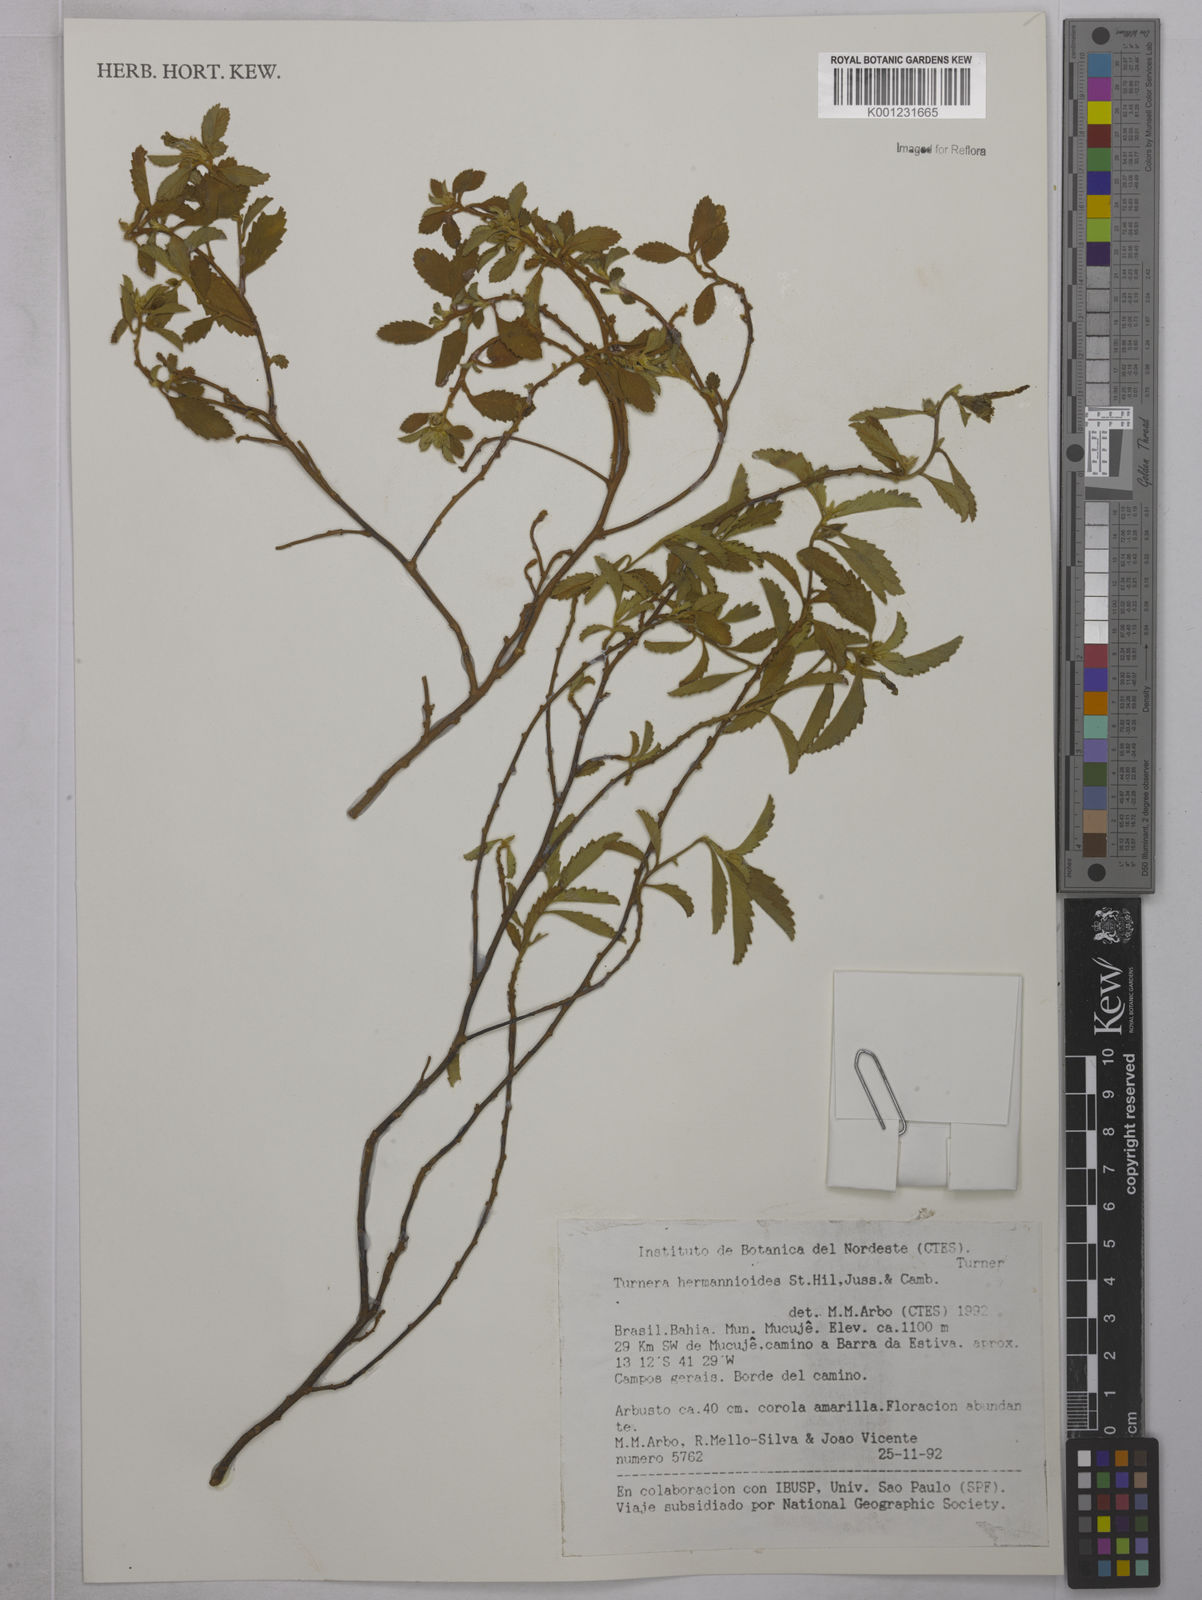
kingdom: Plantae
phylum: Tracheophyta
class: Magnoliopsida
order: Malpighiales
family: Turneraceae
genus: Turnera
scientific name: Turnera hermannioides
